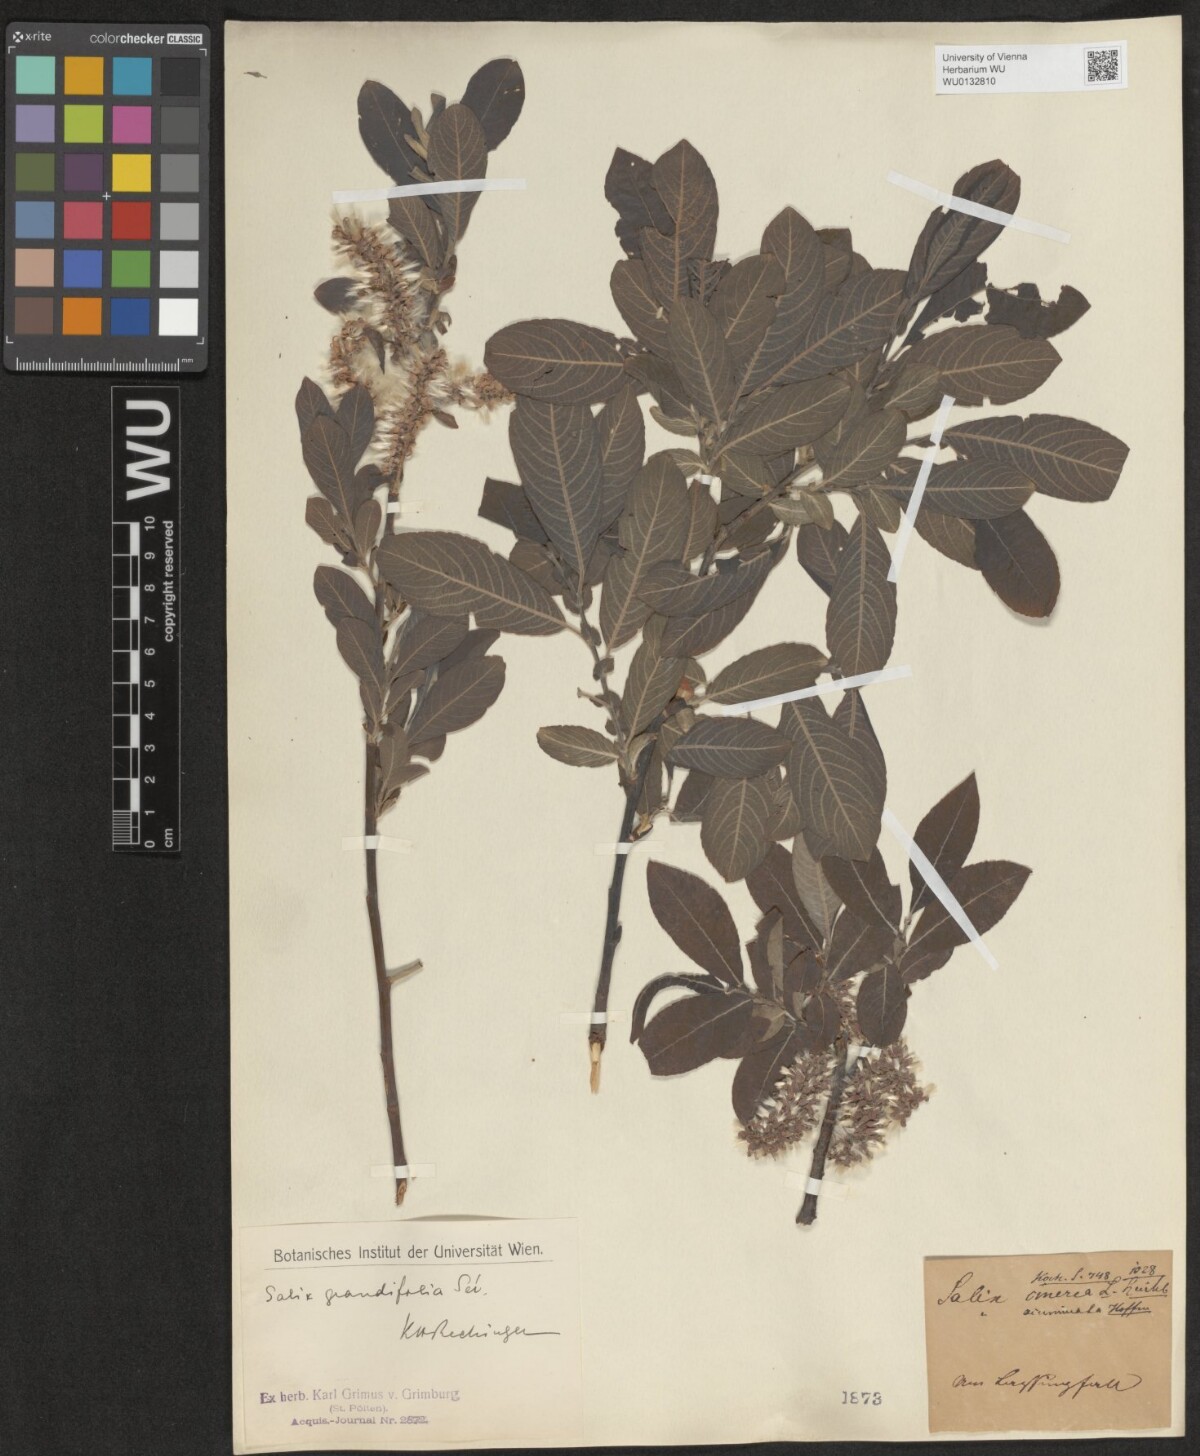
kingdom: Plantae
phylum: Tracheophyta
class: Magnoliopsida
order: Malpighiales
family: Salicaceae
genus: Salix
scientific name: Salix appendiculata
